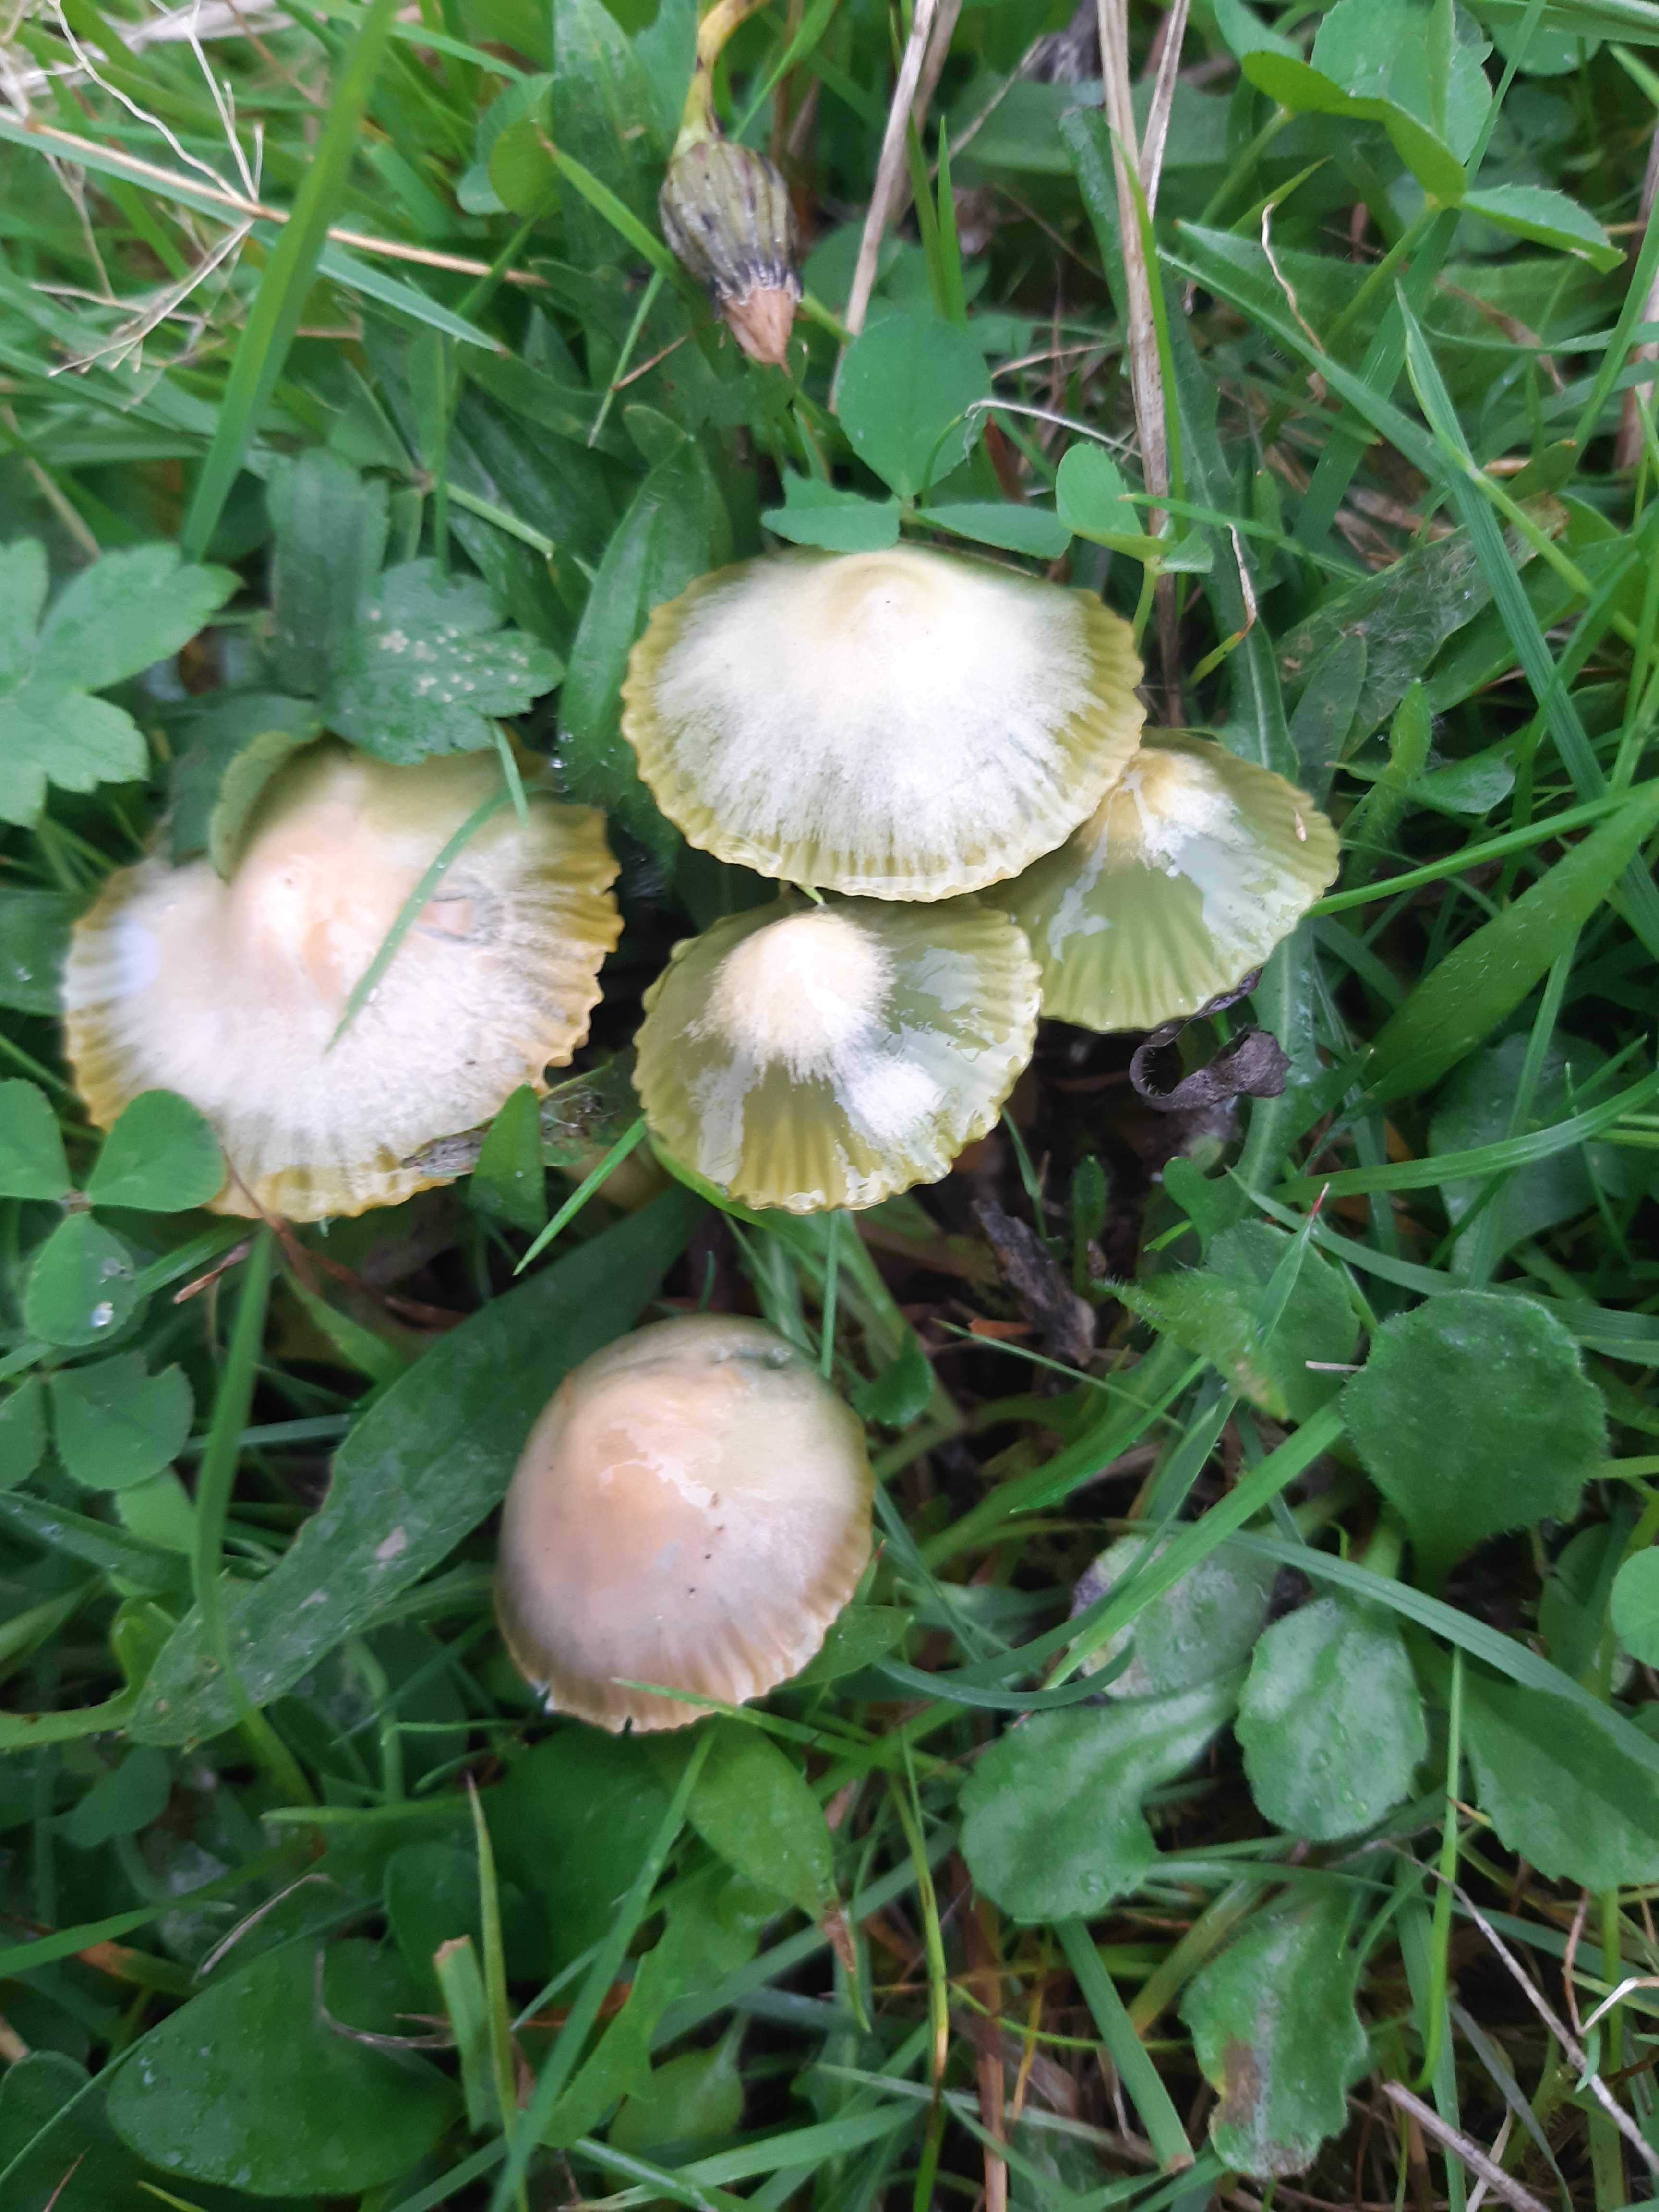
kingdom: Fungi
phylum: Basidiomycota
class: Agaricomycetes
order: Agaricales
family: Hygrophoraceae
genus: Gliophorus
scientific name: Gliophorus psittacinus
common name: papegøje-vokshat
